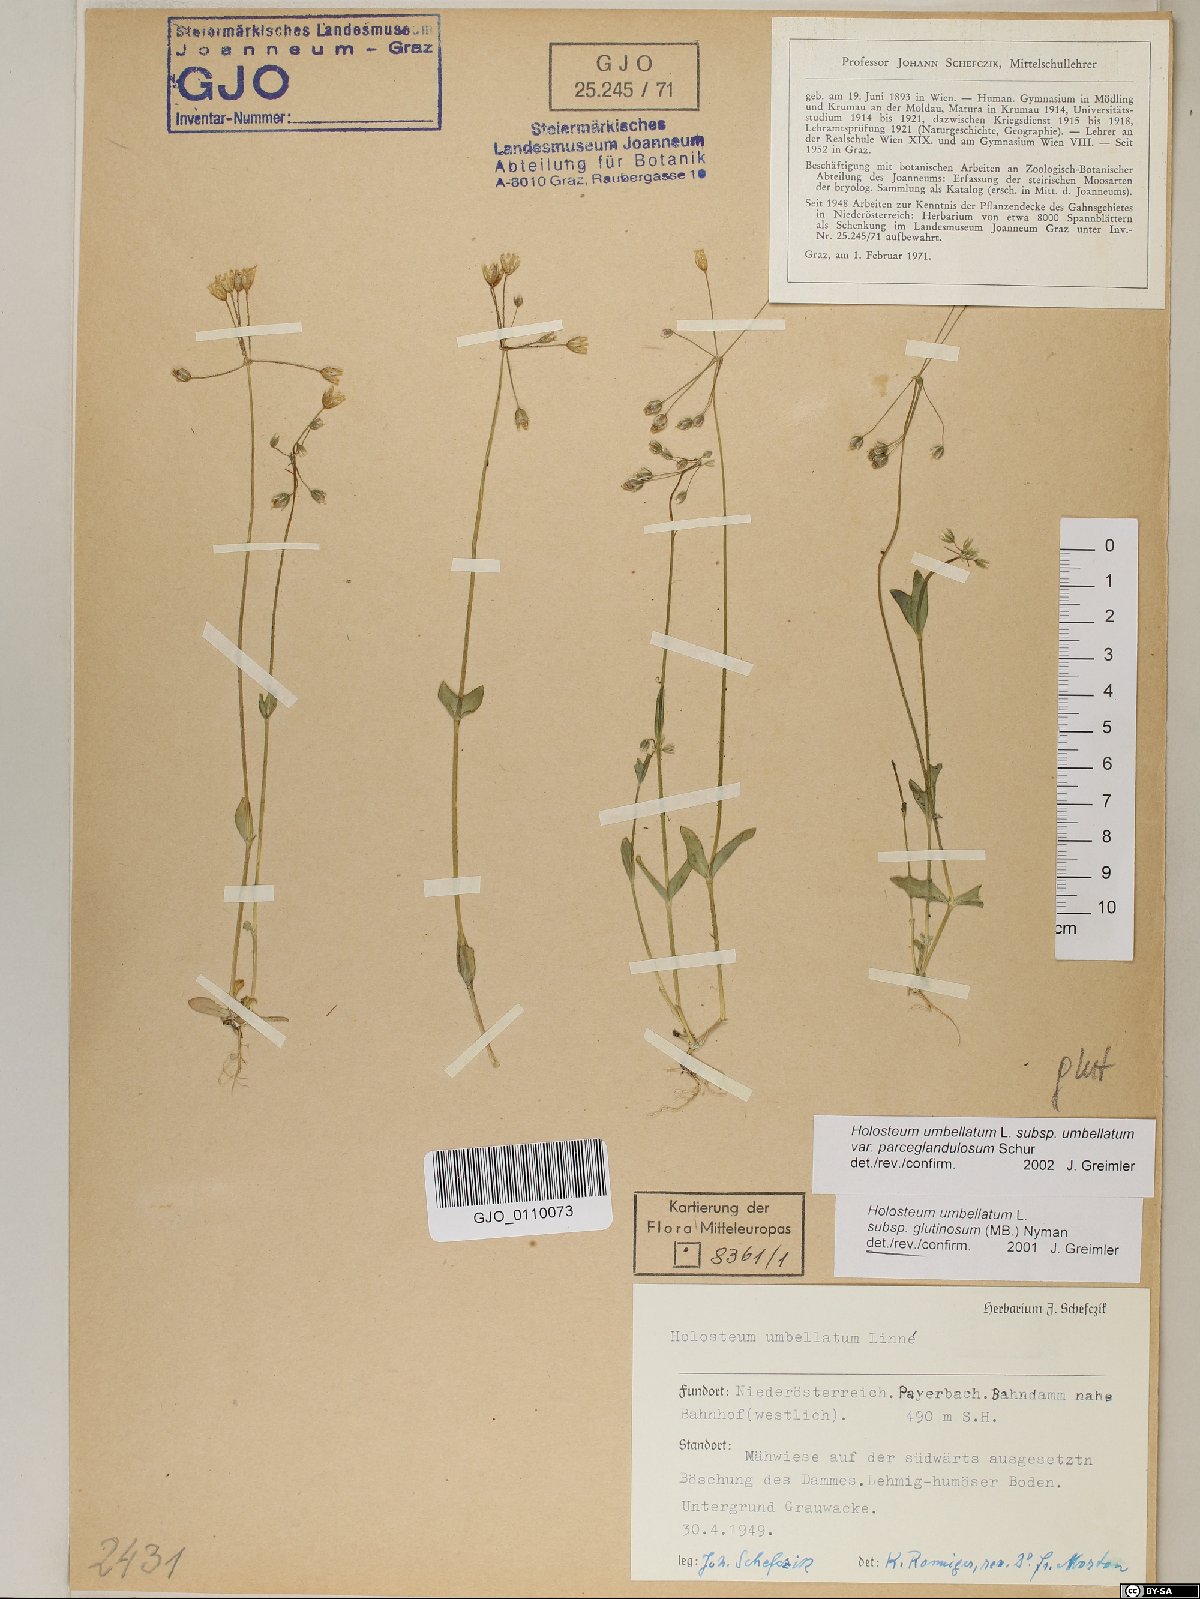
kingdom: Plantae
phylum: Tracheophyta
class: Magnoliopsida
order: Caryophyllales
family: Caryophyllaceae
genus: Holosteum
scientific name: Holosteum umbellatum
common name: Jagged chickweed
